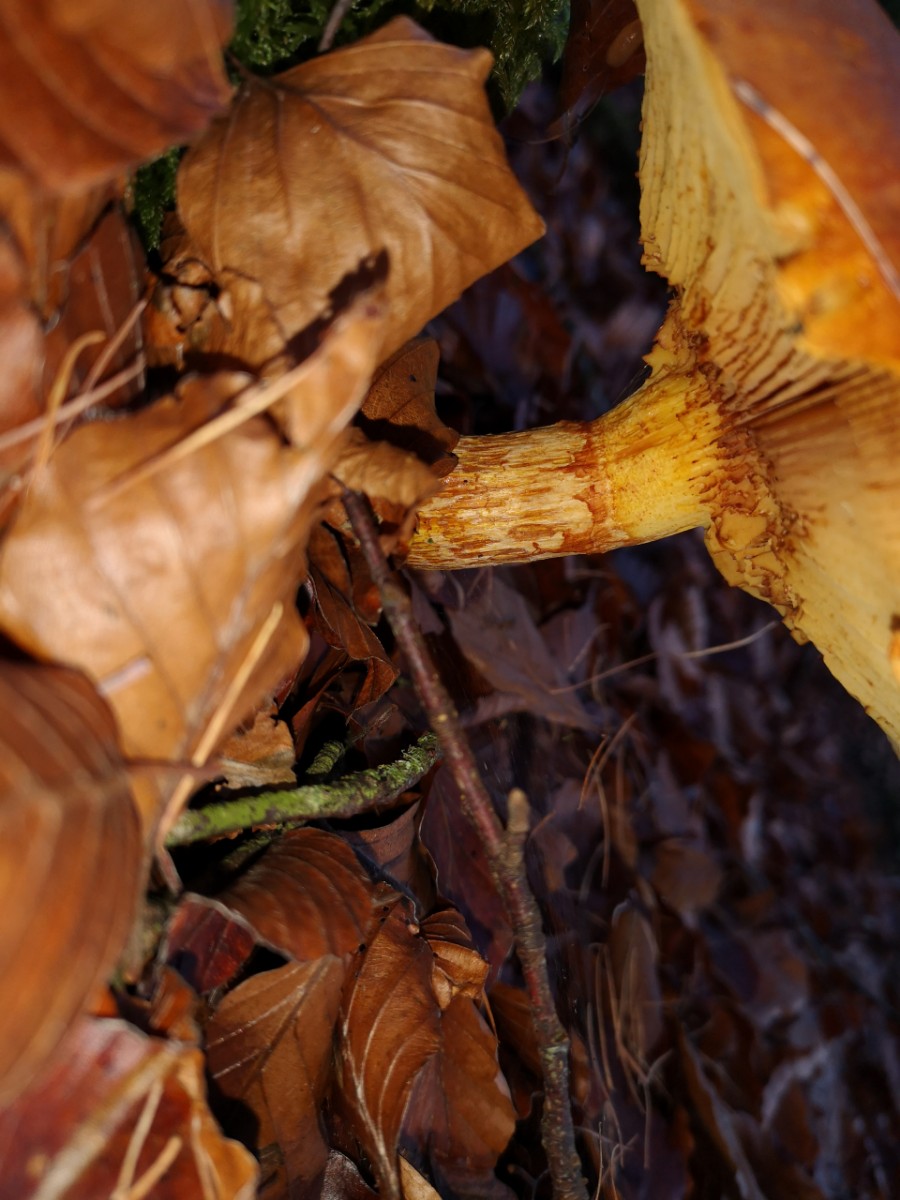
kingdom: Fungi
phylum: Basidiomycota
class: Agaricomycetes
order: Agaricales
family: Hymenogastraceae
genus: Gymnopilus
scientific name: Gymnopilus spectabilis
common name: fibret flammehat
